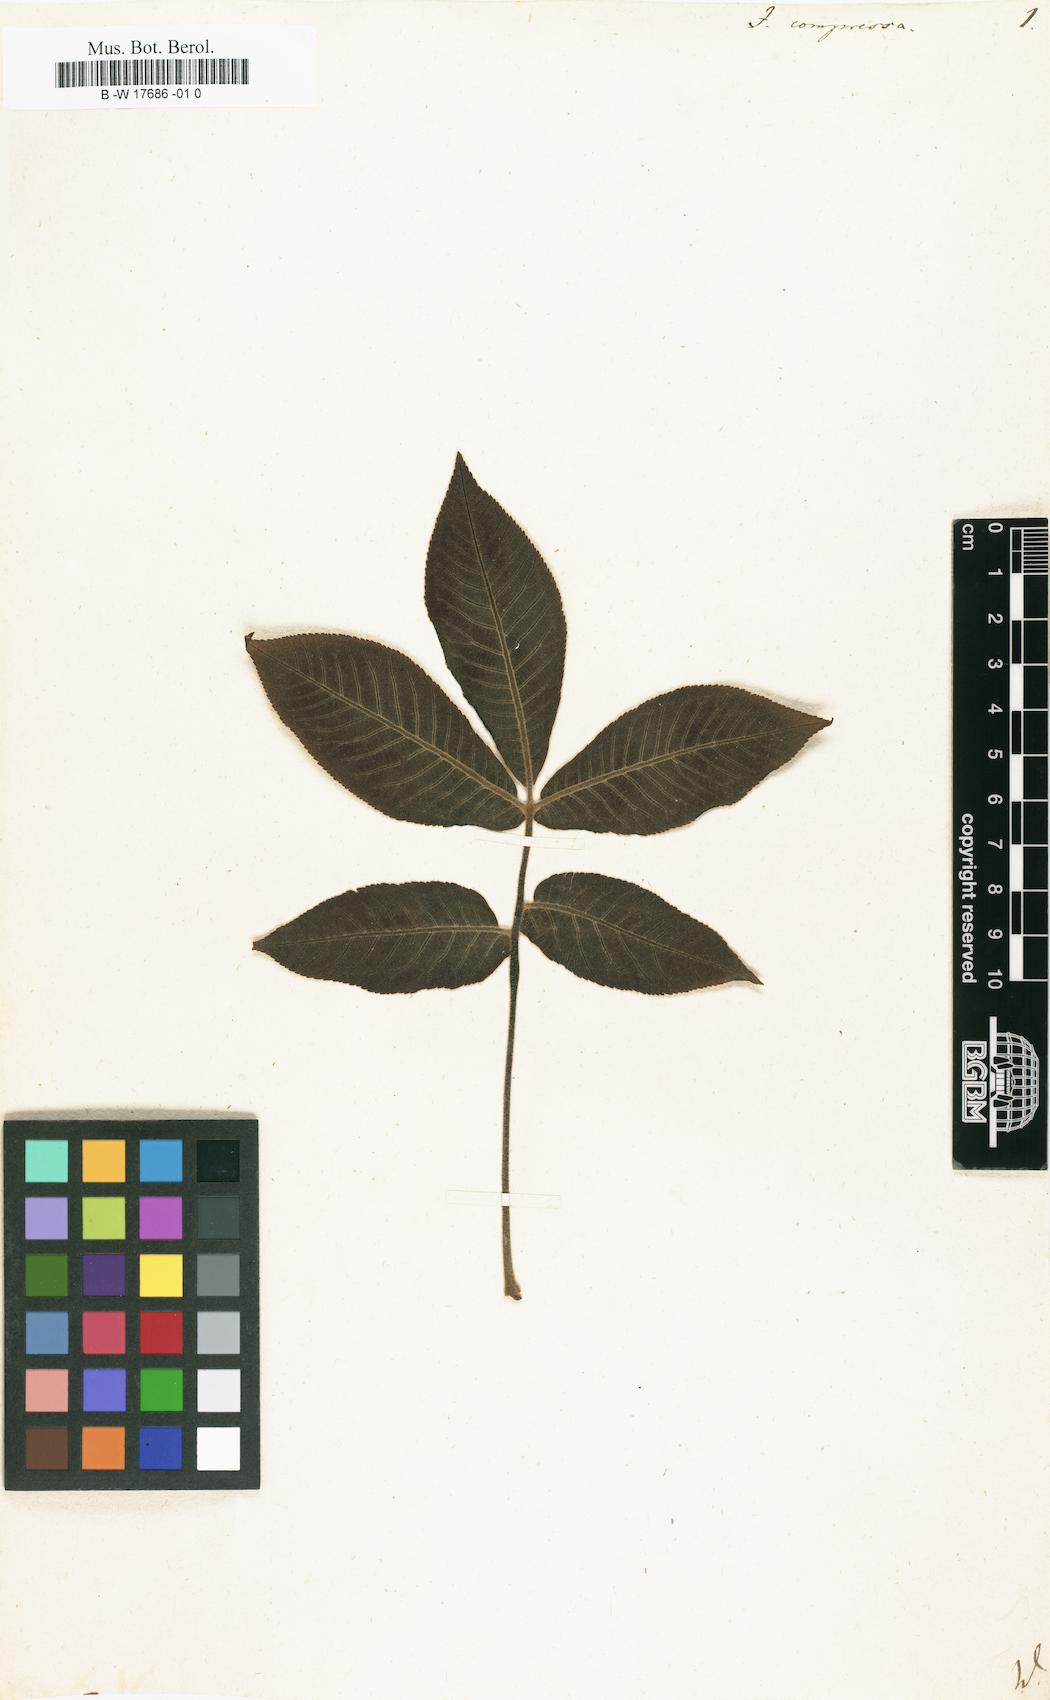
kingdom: Plantae
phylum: Tracheophyta
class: Magnoliopsida
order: Fagales
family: Juglandaceae
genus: Carya
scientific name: Carya cordiformis
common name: Bitternut hickory
